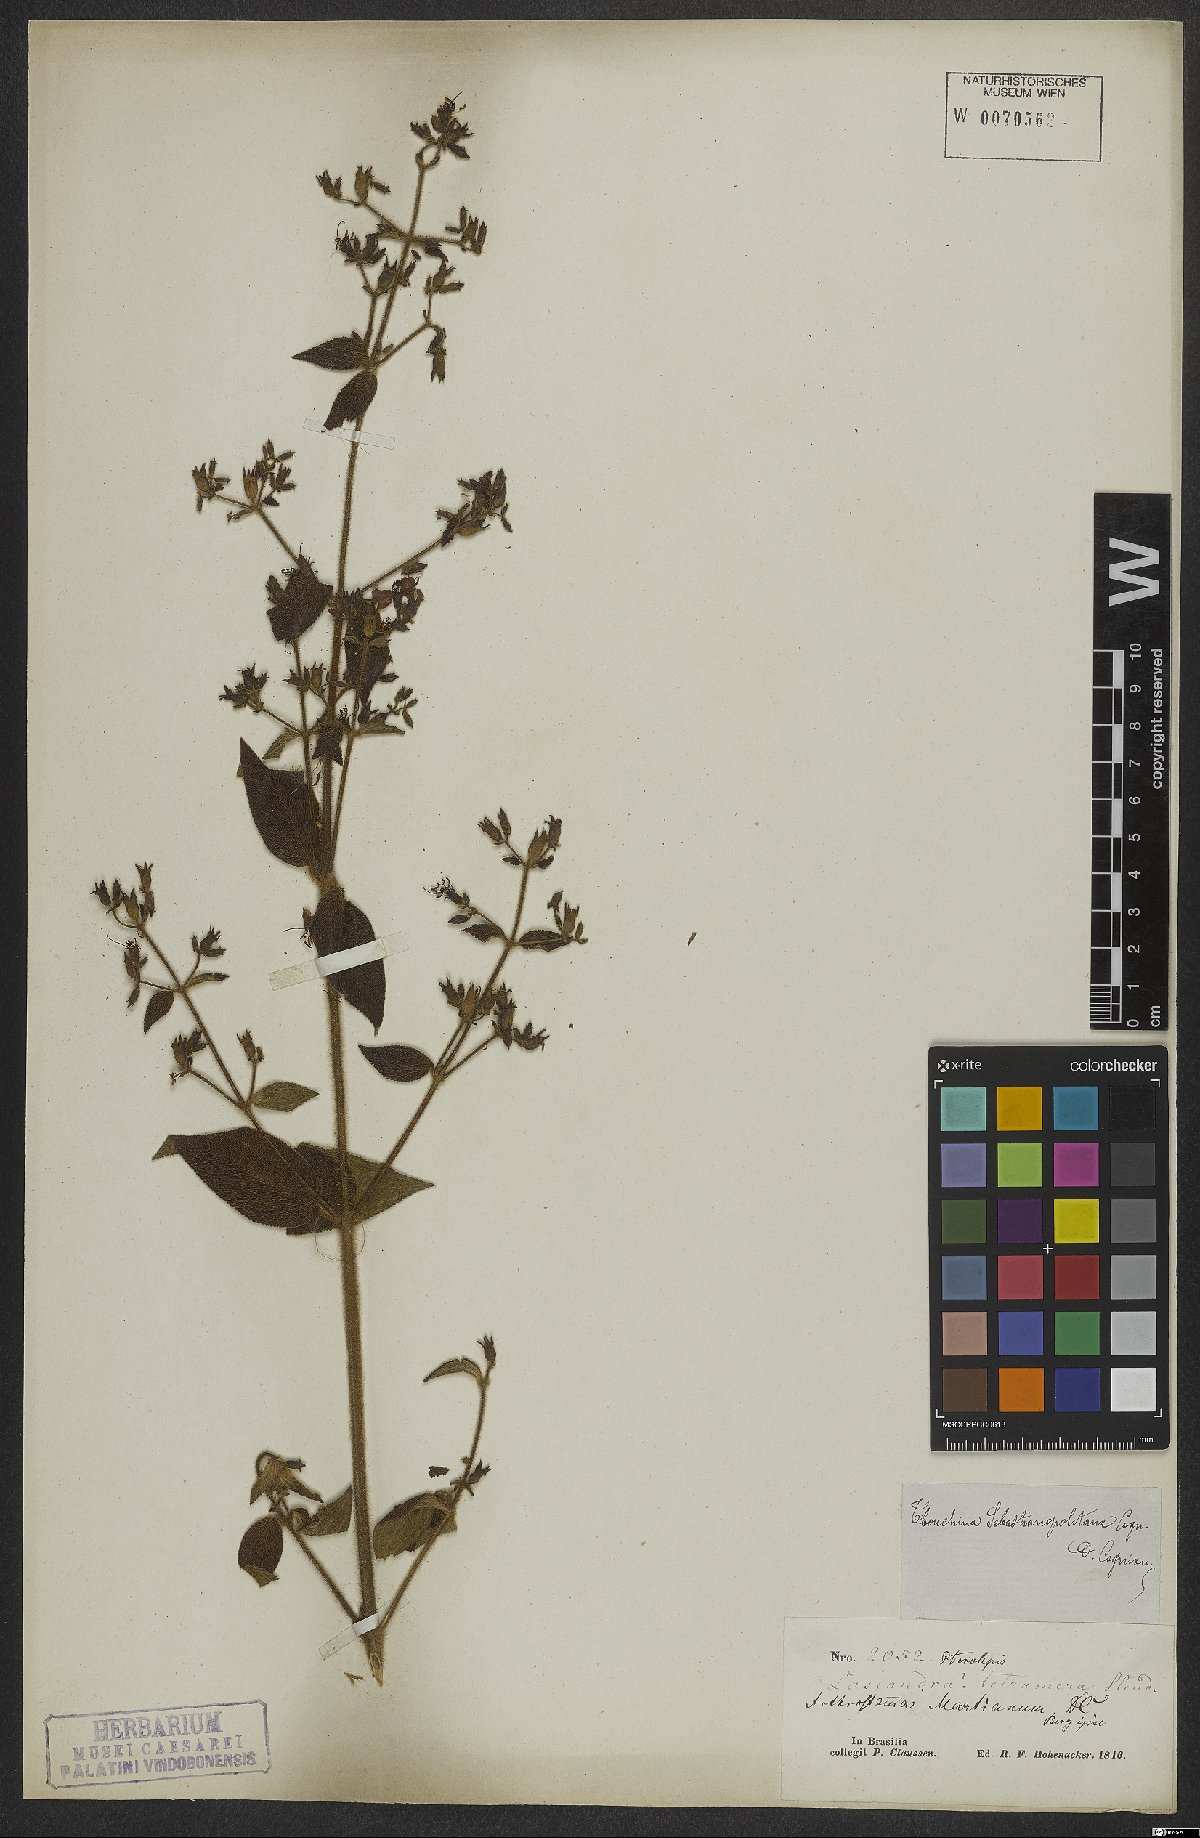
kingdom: Plantae
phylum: Tracheophyta
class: Magnoliopsida
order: Myrtales
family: Melastomataceae
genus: Chaetogastra
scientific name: Chaetogastra sebastianopolitana
